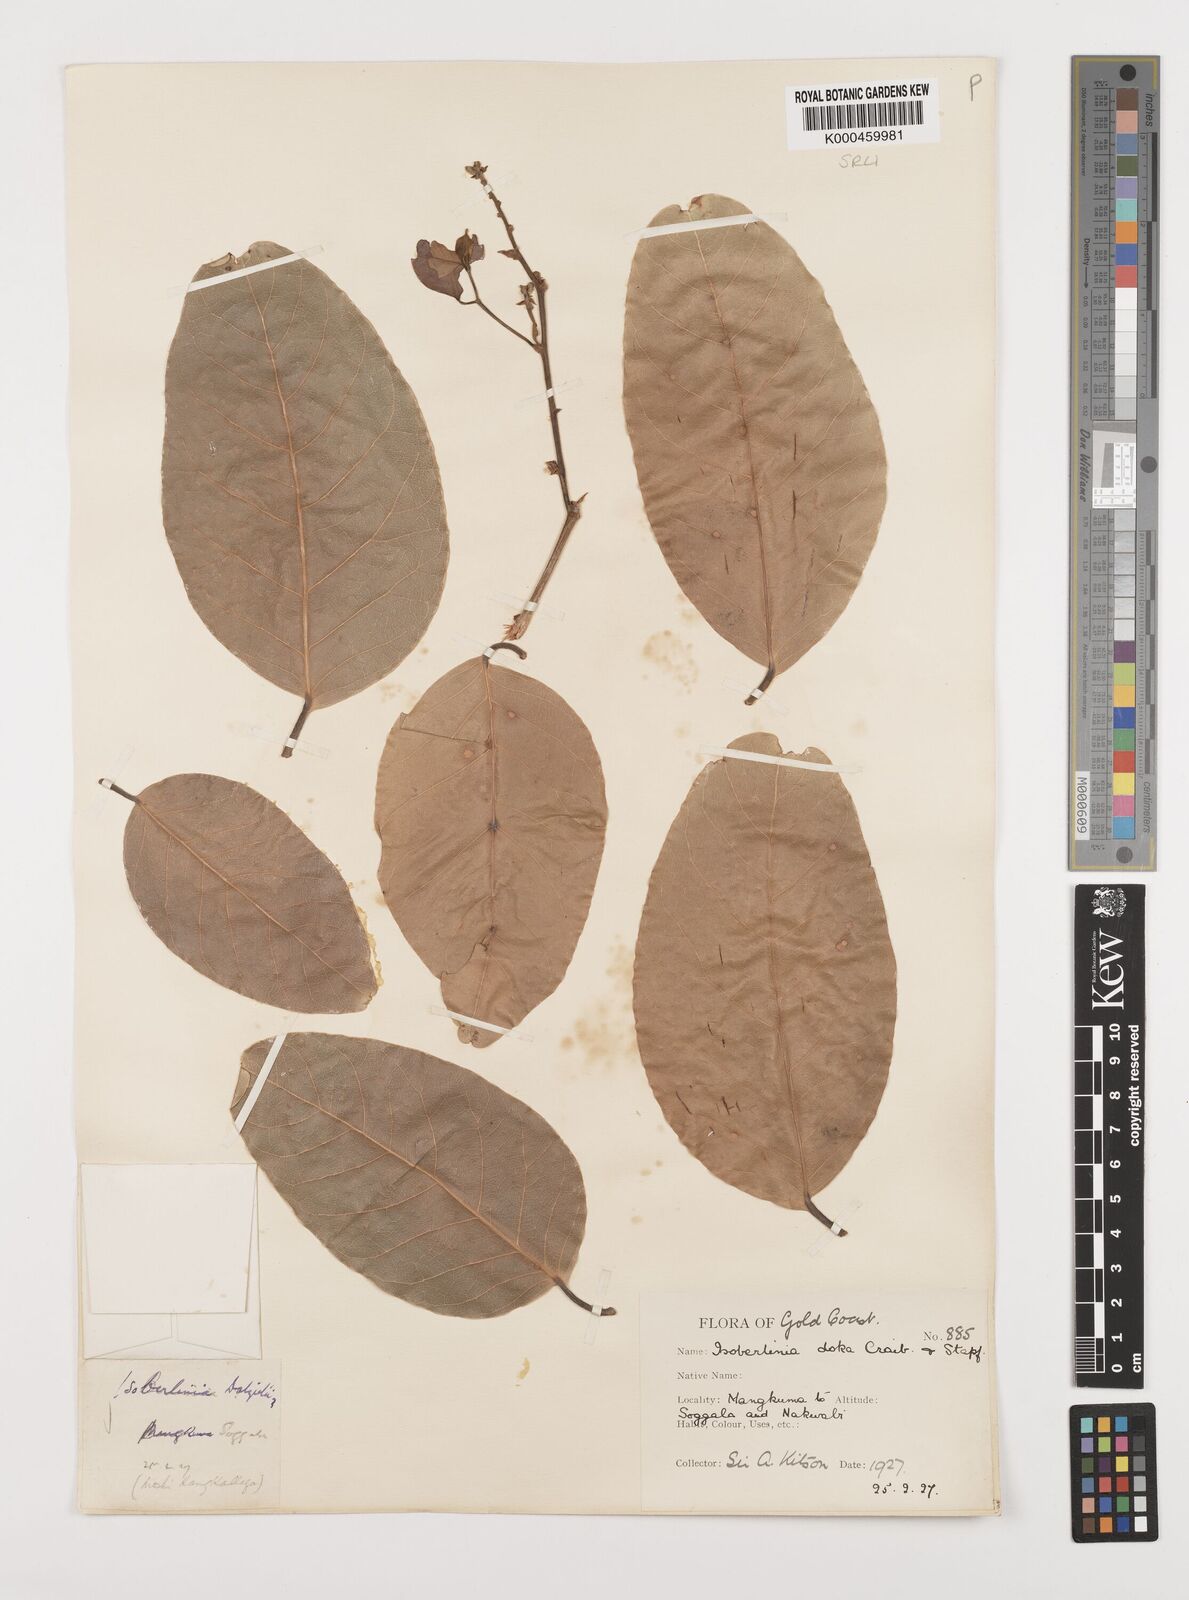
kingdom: Plantae
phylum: Tracheophyta
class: Magnoliopsida
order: Fabales
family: Fabaceae
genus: Isoberlinia
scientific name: Isoberlinia doka
